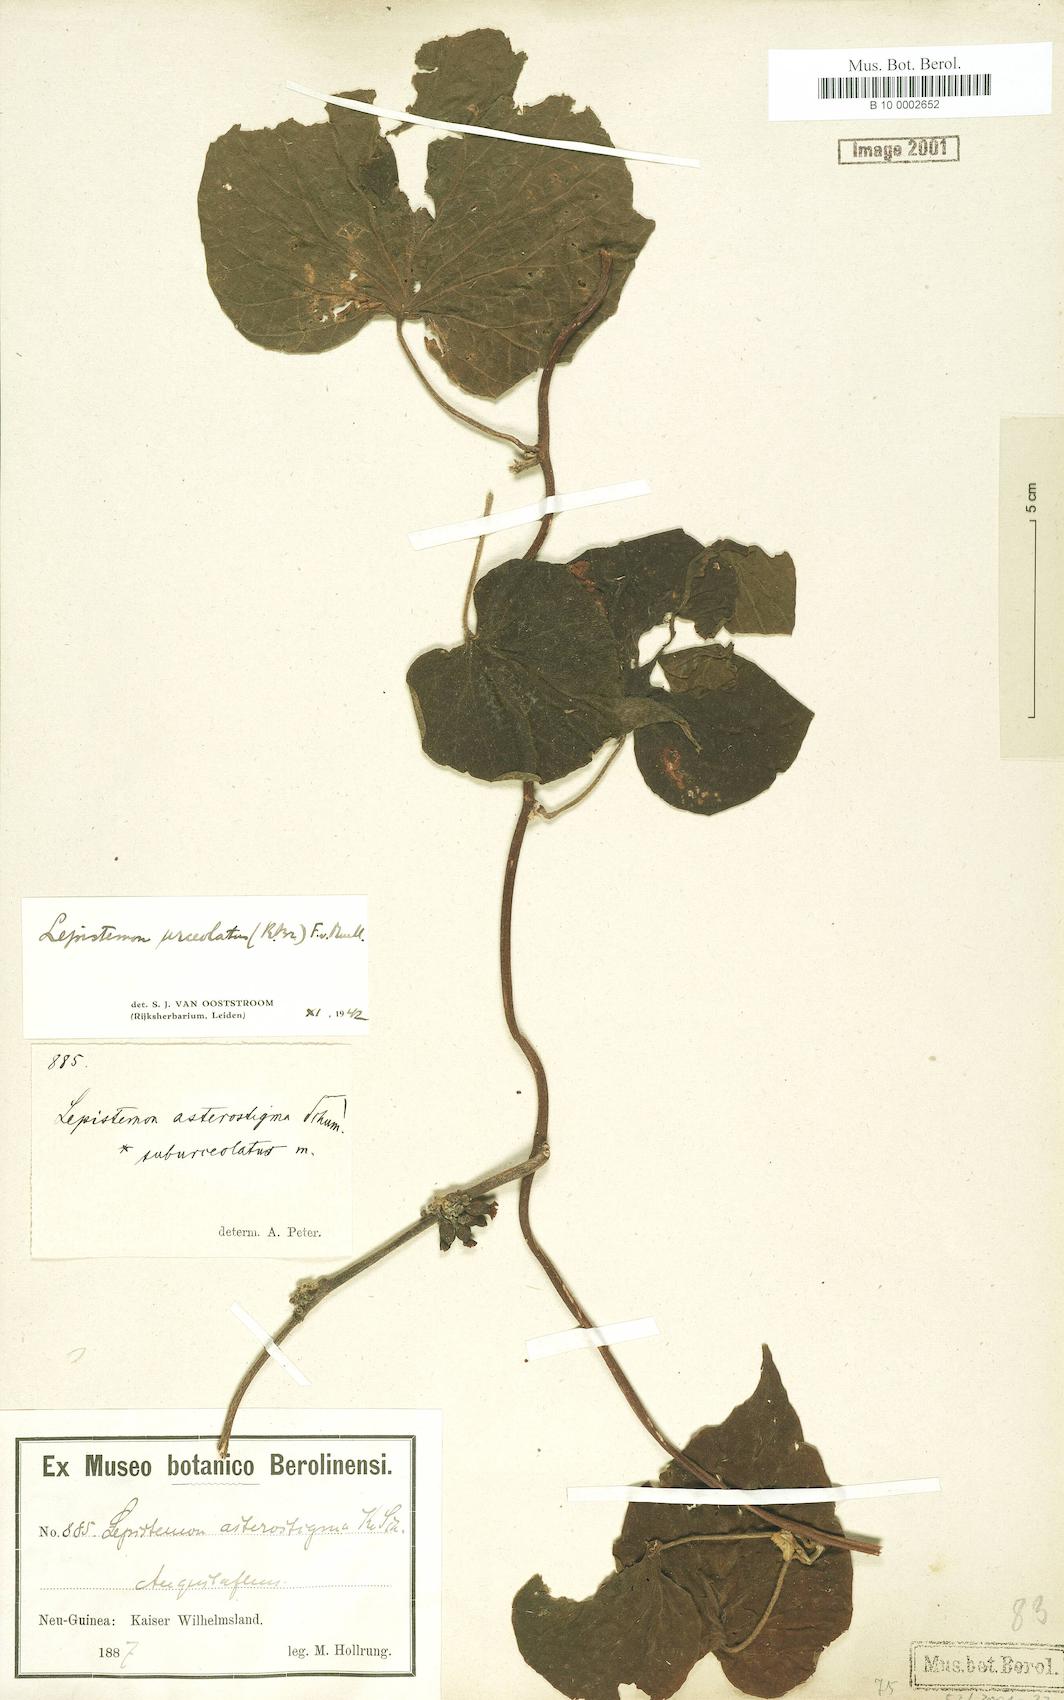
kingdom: Plantae
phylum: Tracheophyta
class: Magnoliopsida
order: Solanales
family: Convolvulaceae
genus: Lepistemon
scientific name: Lepistemon urceolatus
